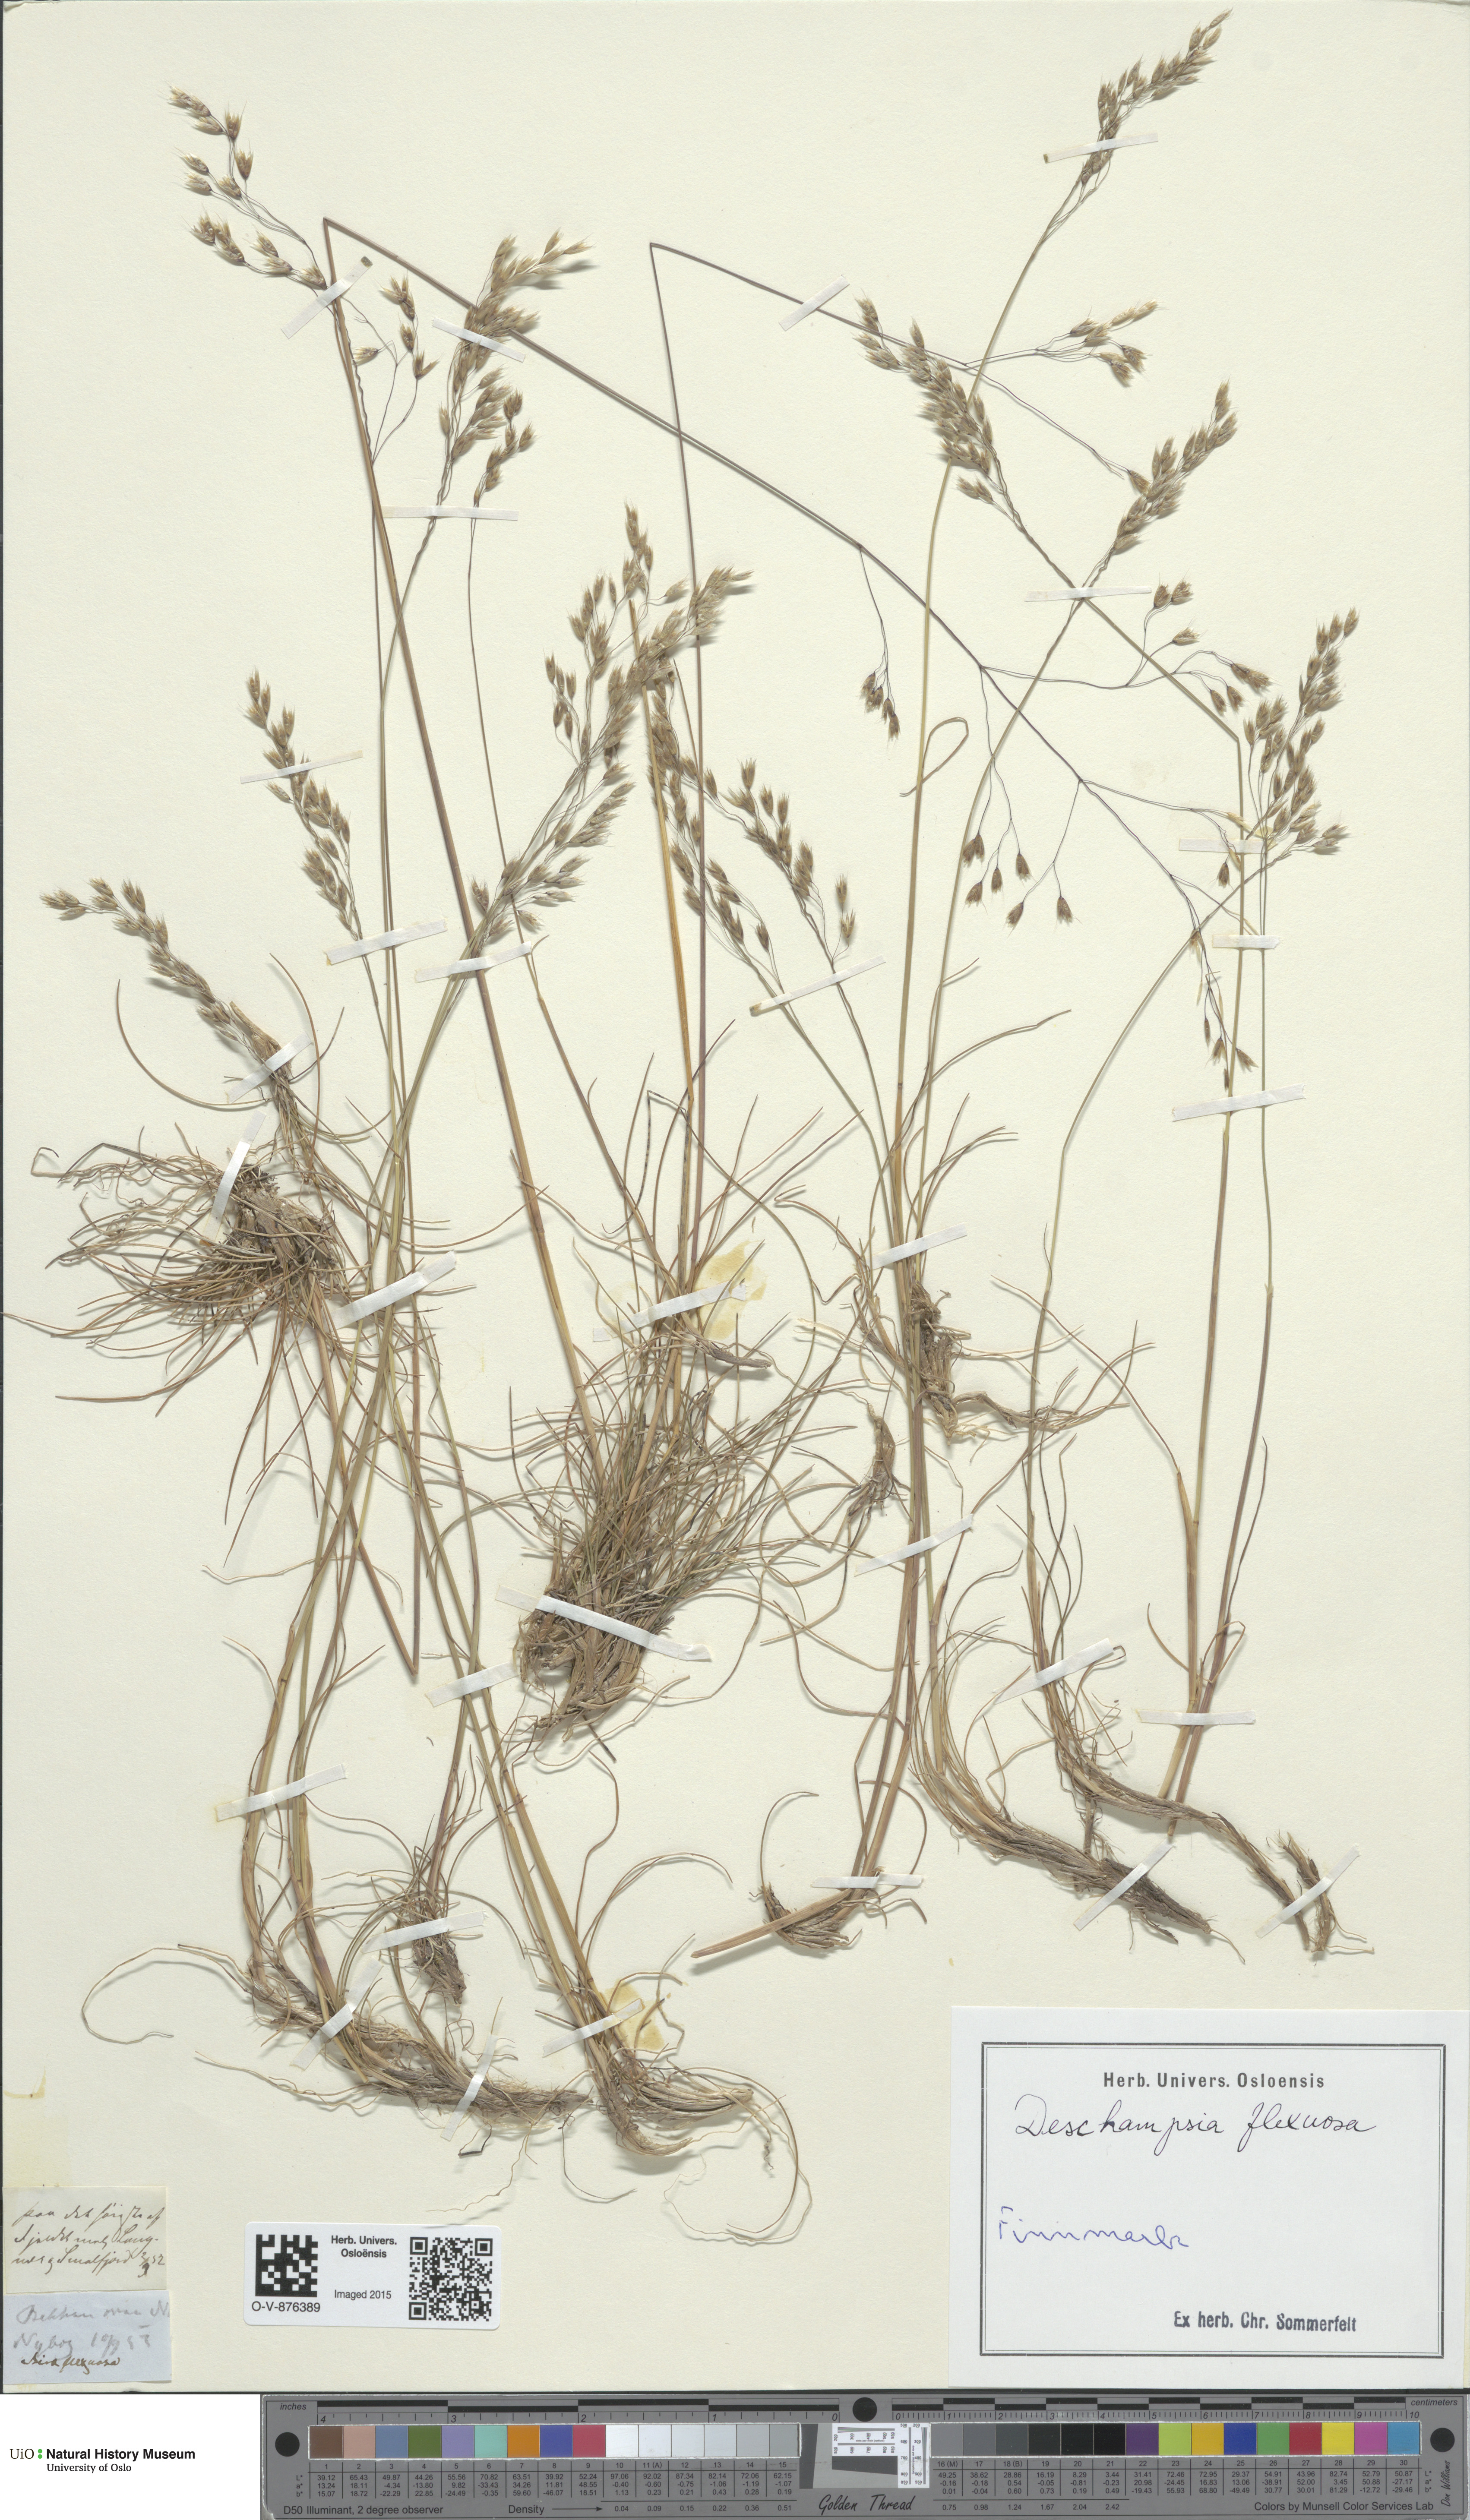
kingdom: Plantae
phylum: Tracheophyta
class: Liliopsida
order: Poales
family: Poaceae
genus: Avenella
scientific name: Avenella flexuosa
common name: Wavy hairgrass
